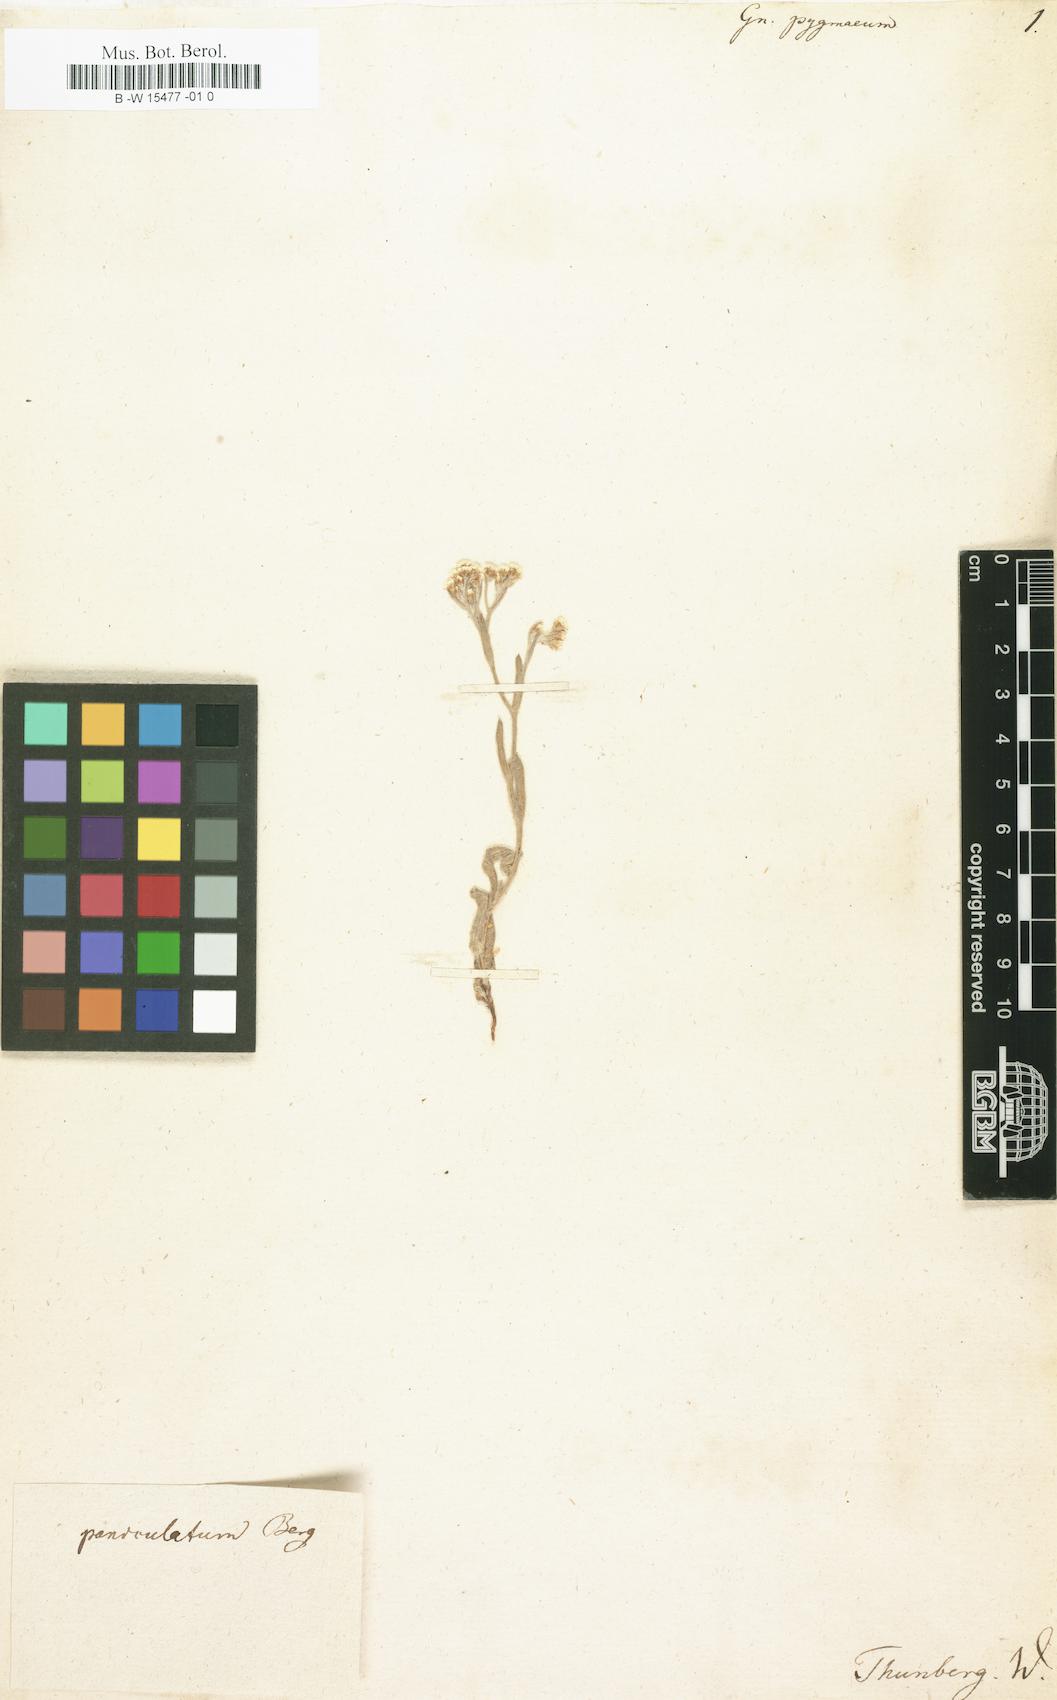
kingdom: Plantae
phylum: Tracheophyta
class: Magnoliopsida
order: Asterales
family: Asteraceae
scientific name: Asteraceae
